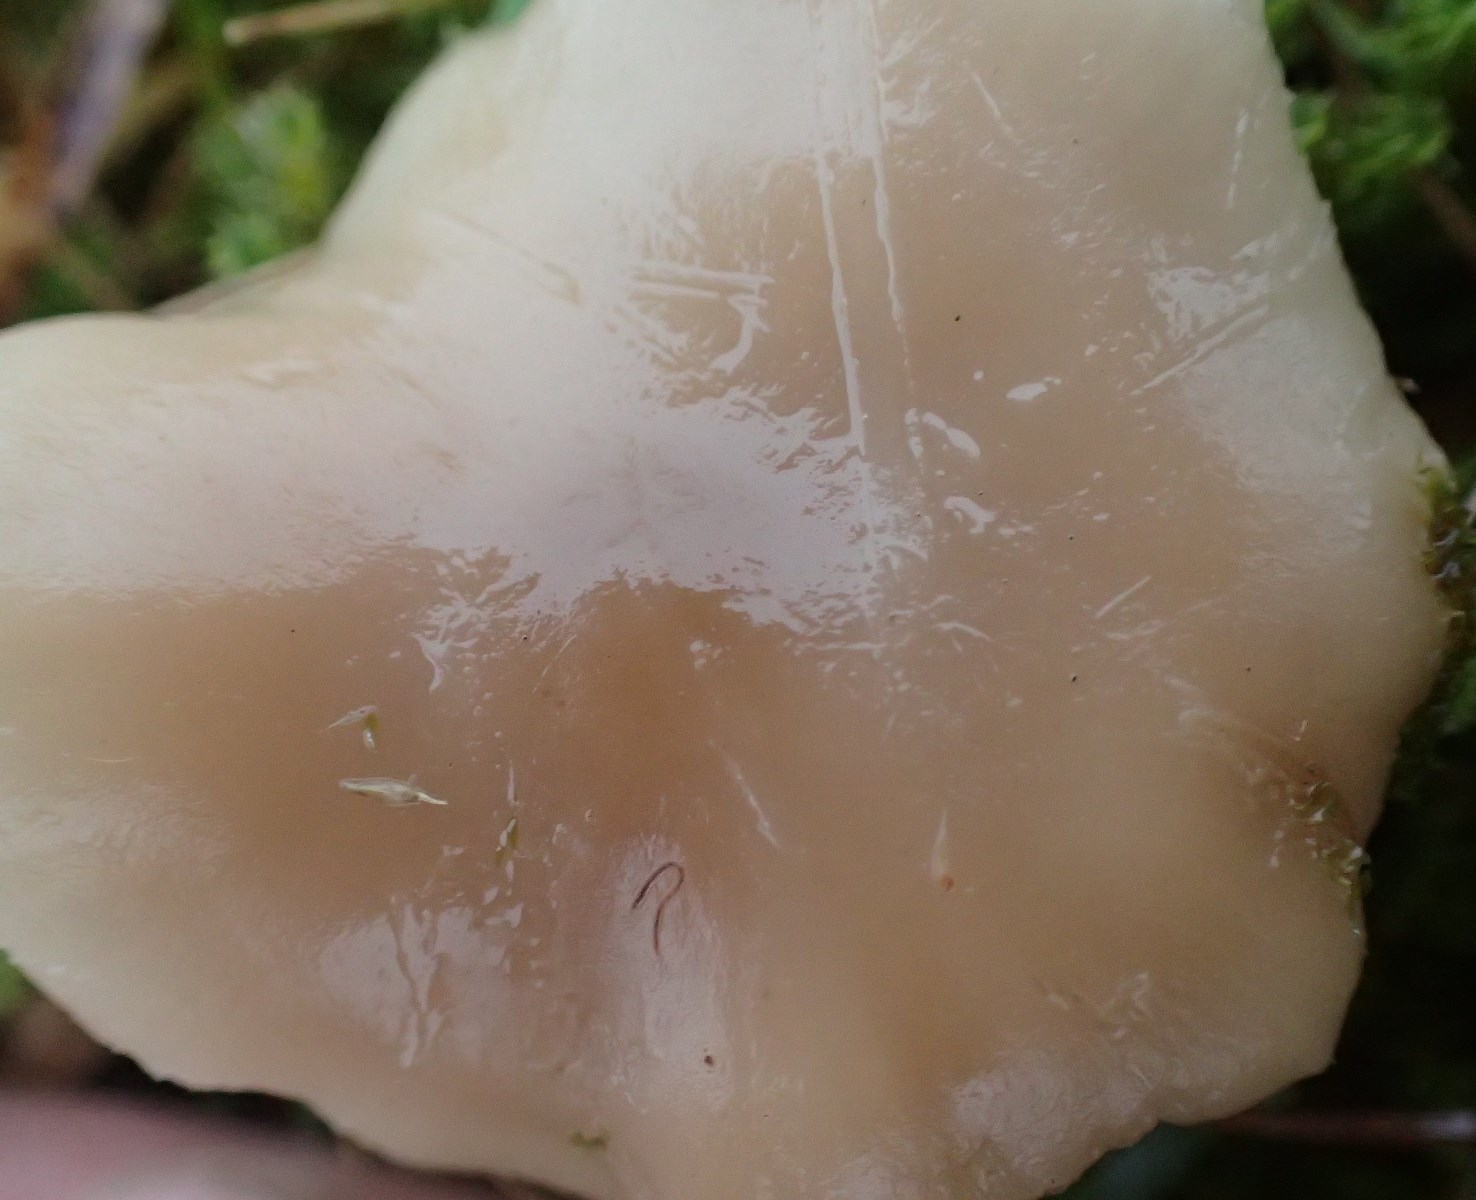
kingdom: Fungi
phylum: Basidiomycota
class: Agaricomycetes
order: Agaricales
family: Tricholomataceae
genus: Clitocybe
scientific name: Clitocybe fragrans
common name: vellugtende tragthat
